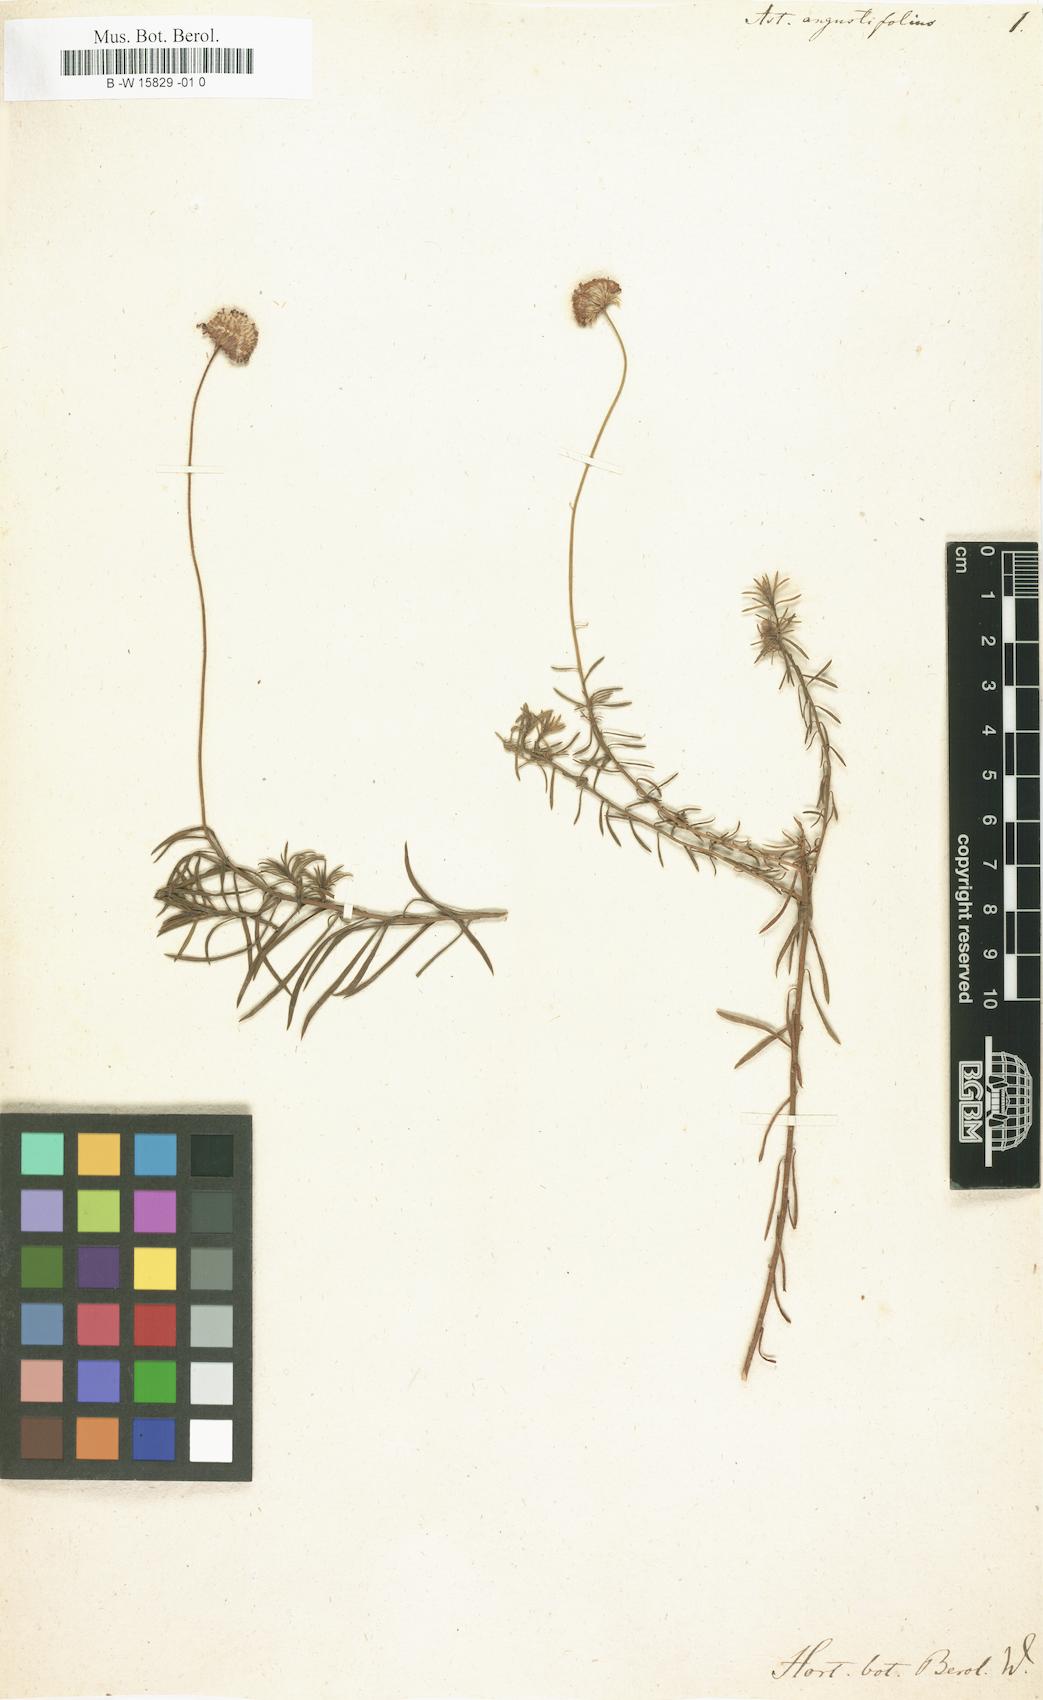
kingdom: Plantae
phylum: Tracheophyta
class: Magnoliopsida
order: Asterales
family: Asteraceae
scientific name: Asteraceae
